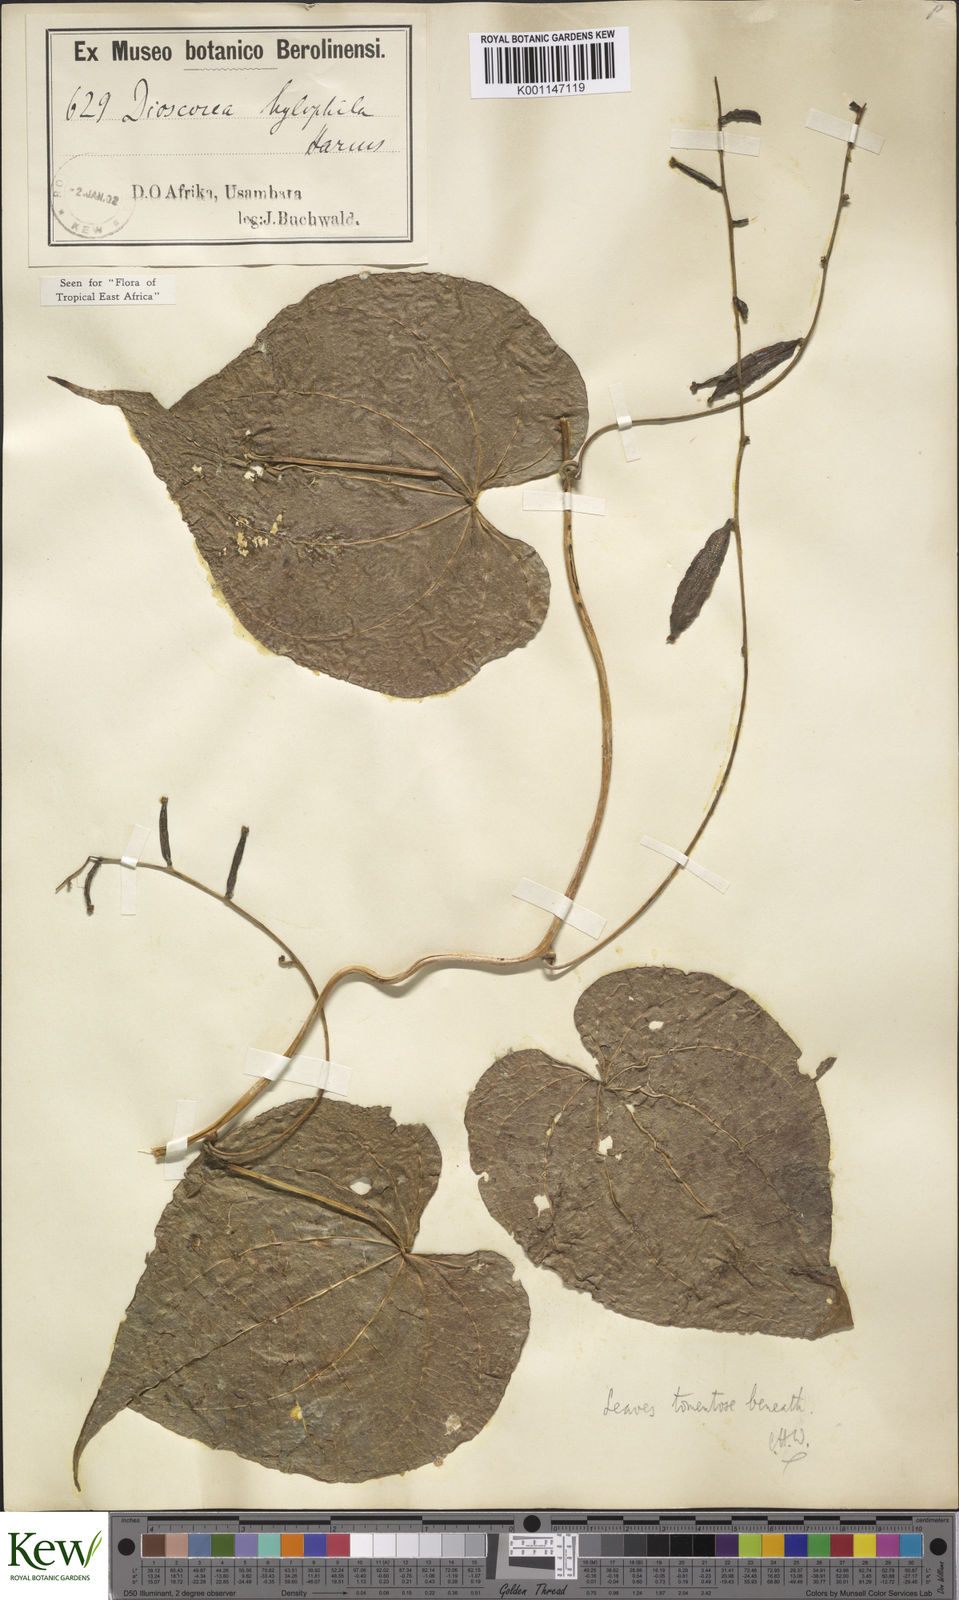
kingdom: Plantae
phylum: Tracheophyta
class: Liliopsida
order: Dioscoreales
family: Dioscoreaceae
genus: Dioscorea
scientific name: Dioscorea
